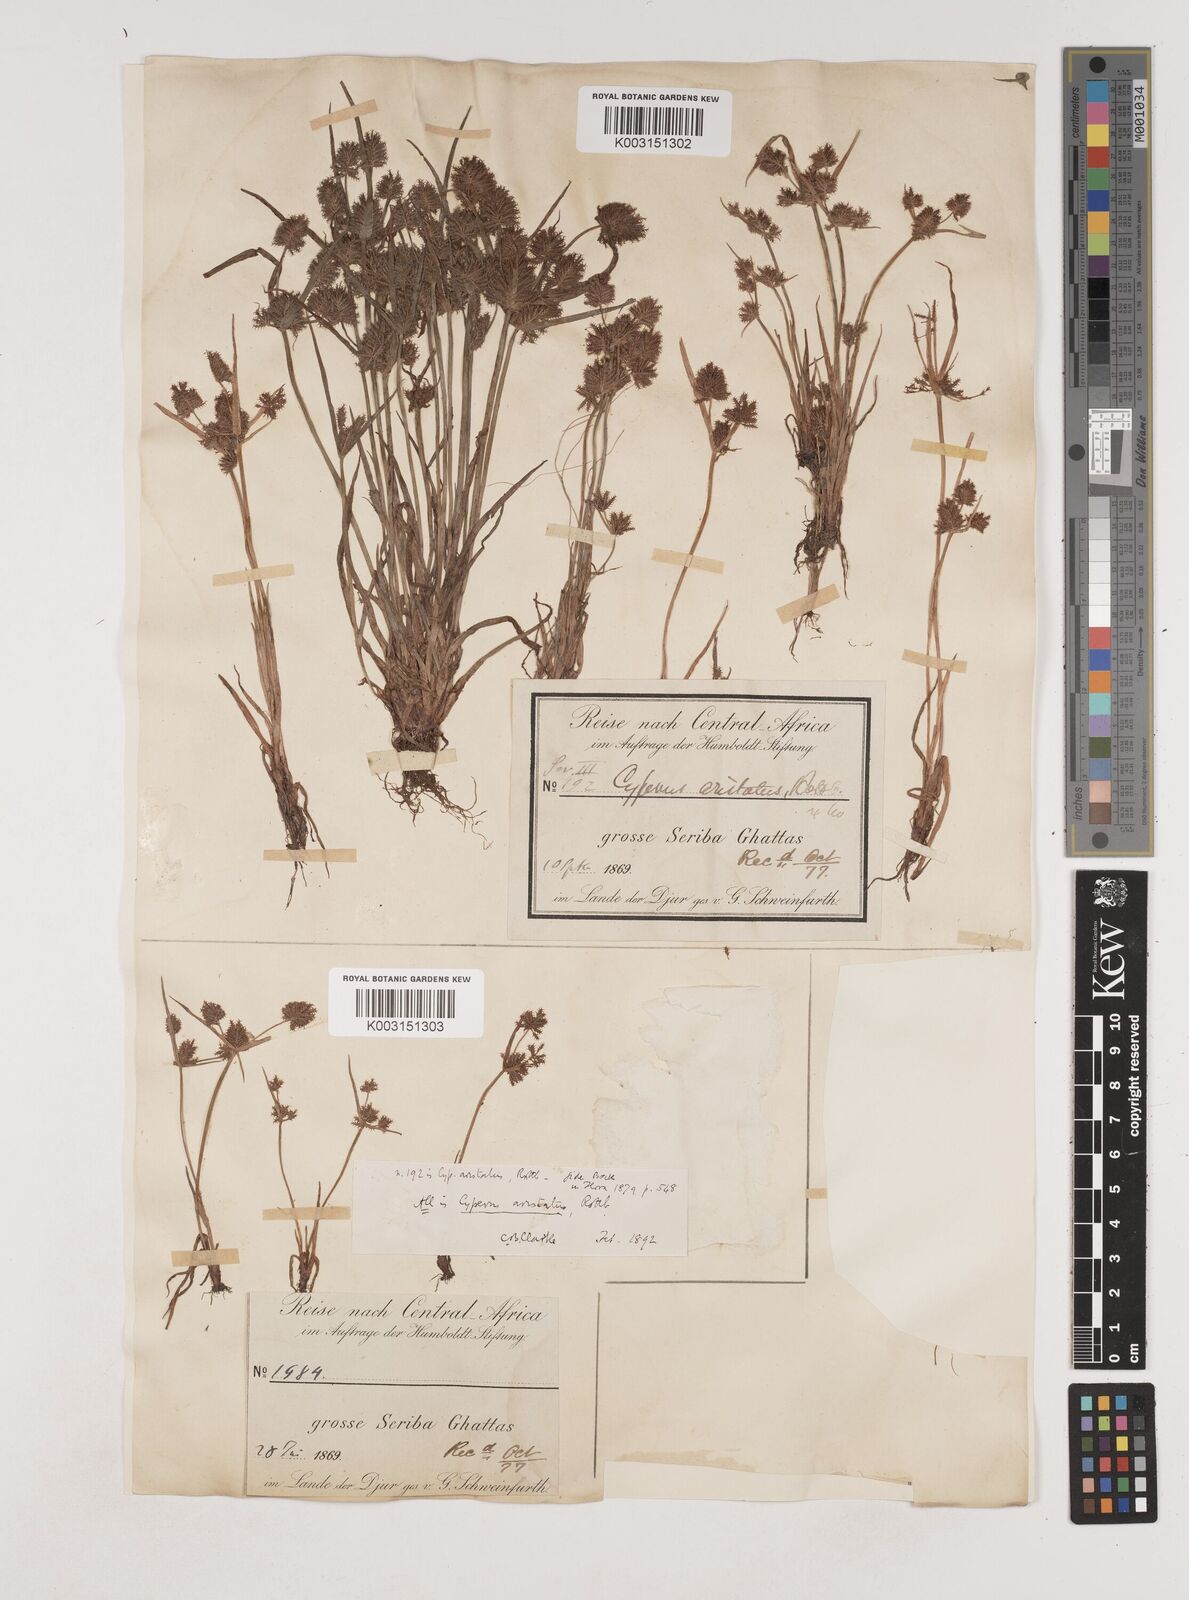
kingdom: Plantae
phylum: Tracheophyta
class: Liliopsida
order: Poales
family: Cyperaceae
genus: Cyperus
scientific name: Cyperus squarrosus
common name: Awned cyperus
